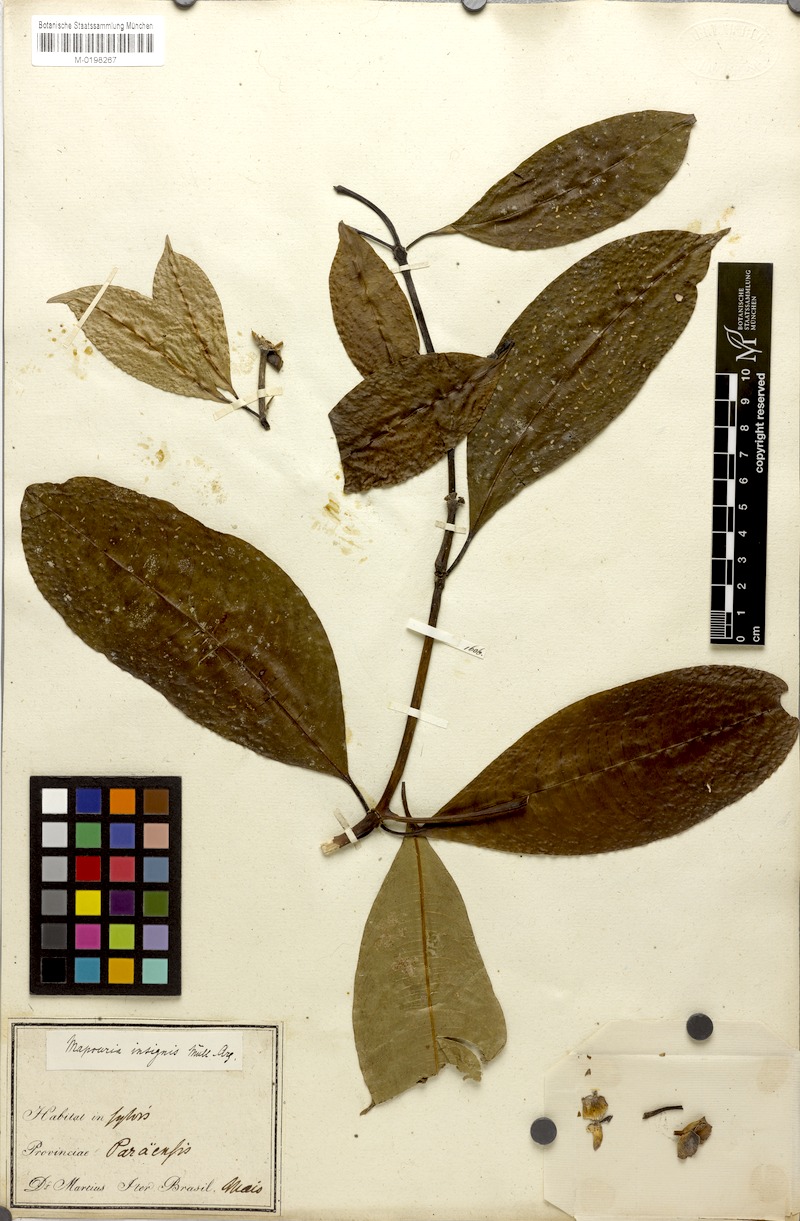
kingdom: Plantae
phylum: Tracheophyta
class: Magnoliopsida
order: Gentianales
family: Rubiaceae
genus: Palicourea
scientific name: Palicourea perinsignis
